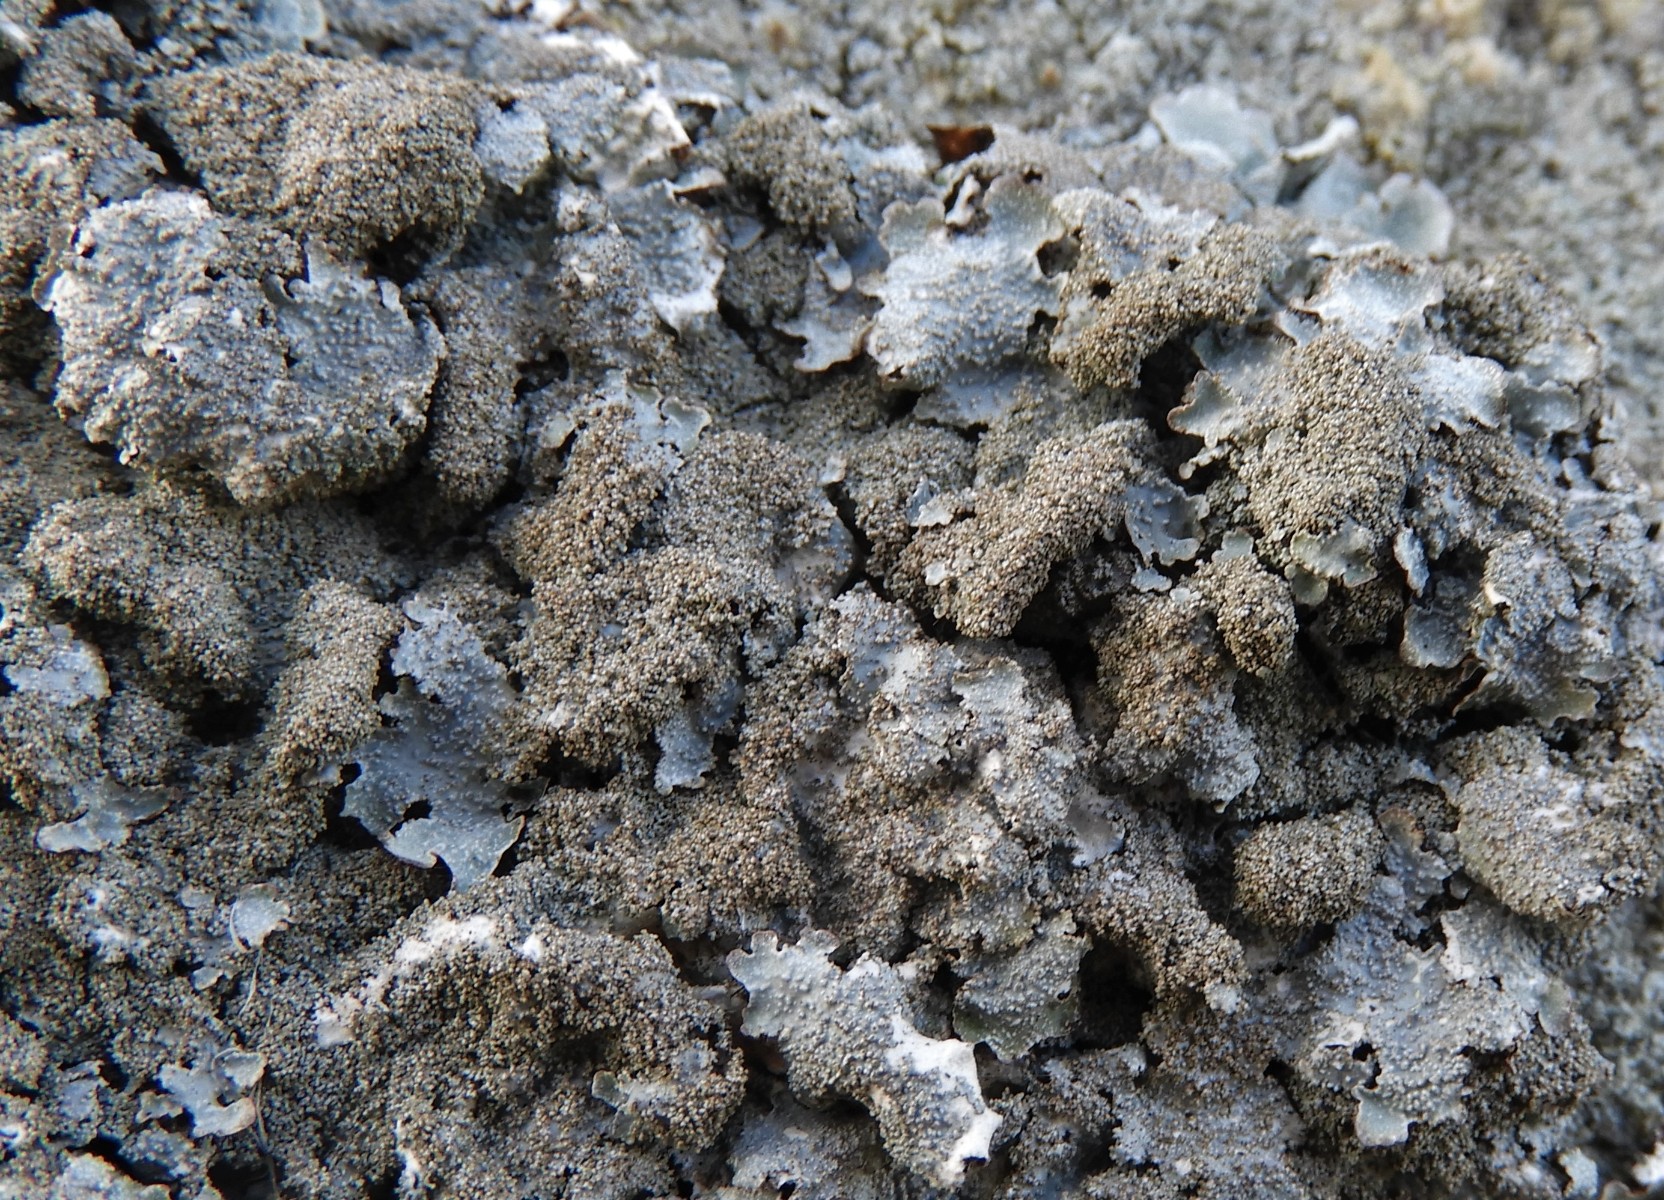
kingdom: Fungi
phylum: Ascomycota
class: Lecanoromycetes
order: Lecanorales
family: Parmeliaceae
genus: Parmelia
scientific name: Parmelia saxatilis
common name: farve-skållav
